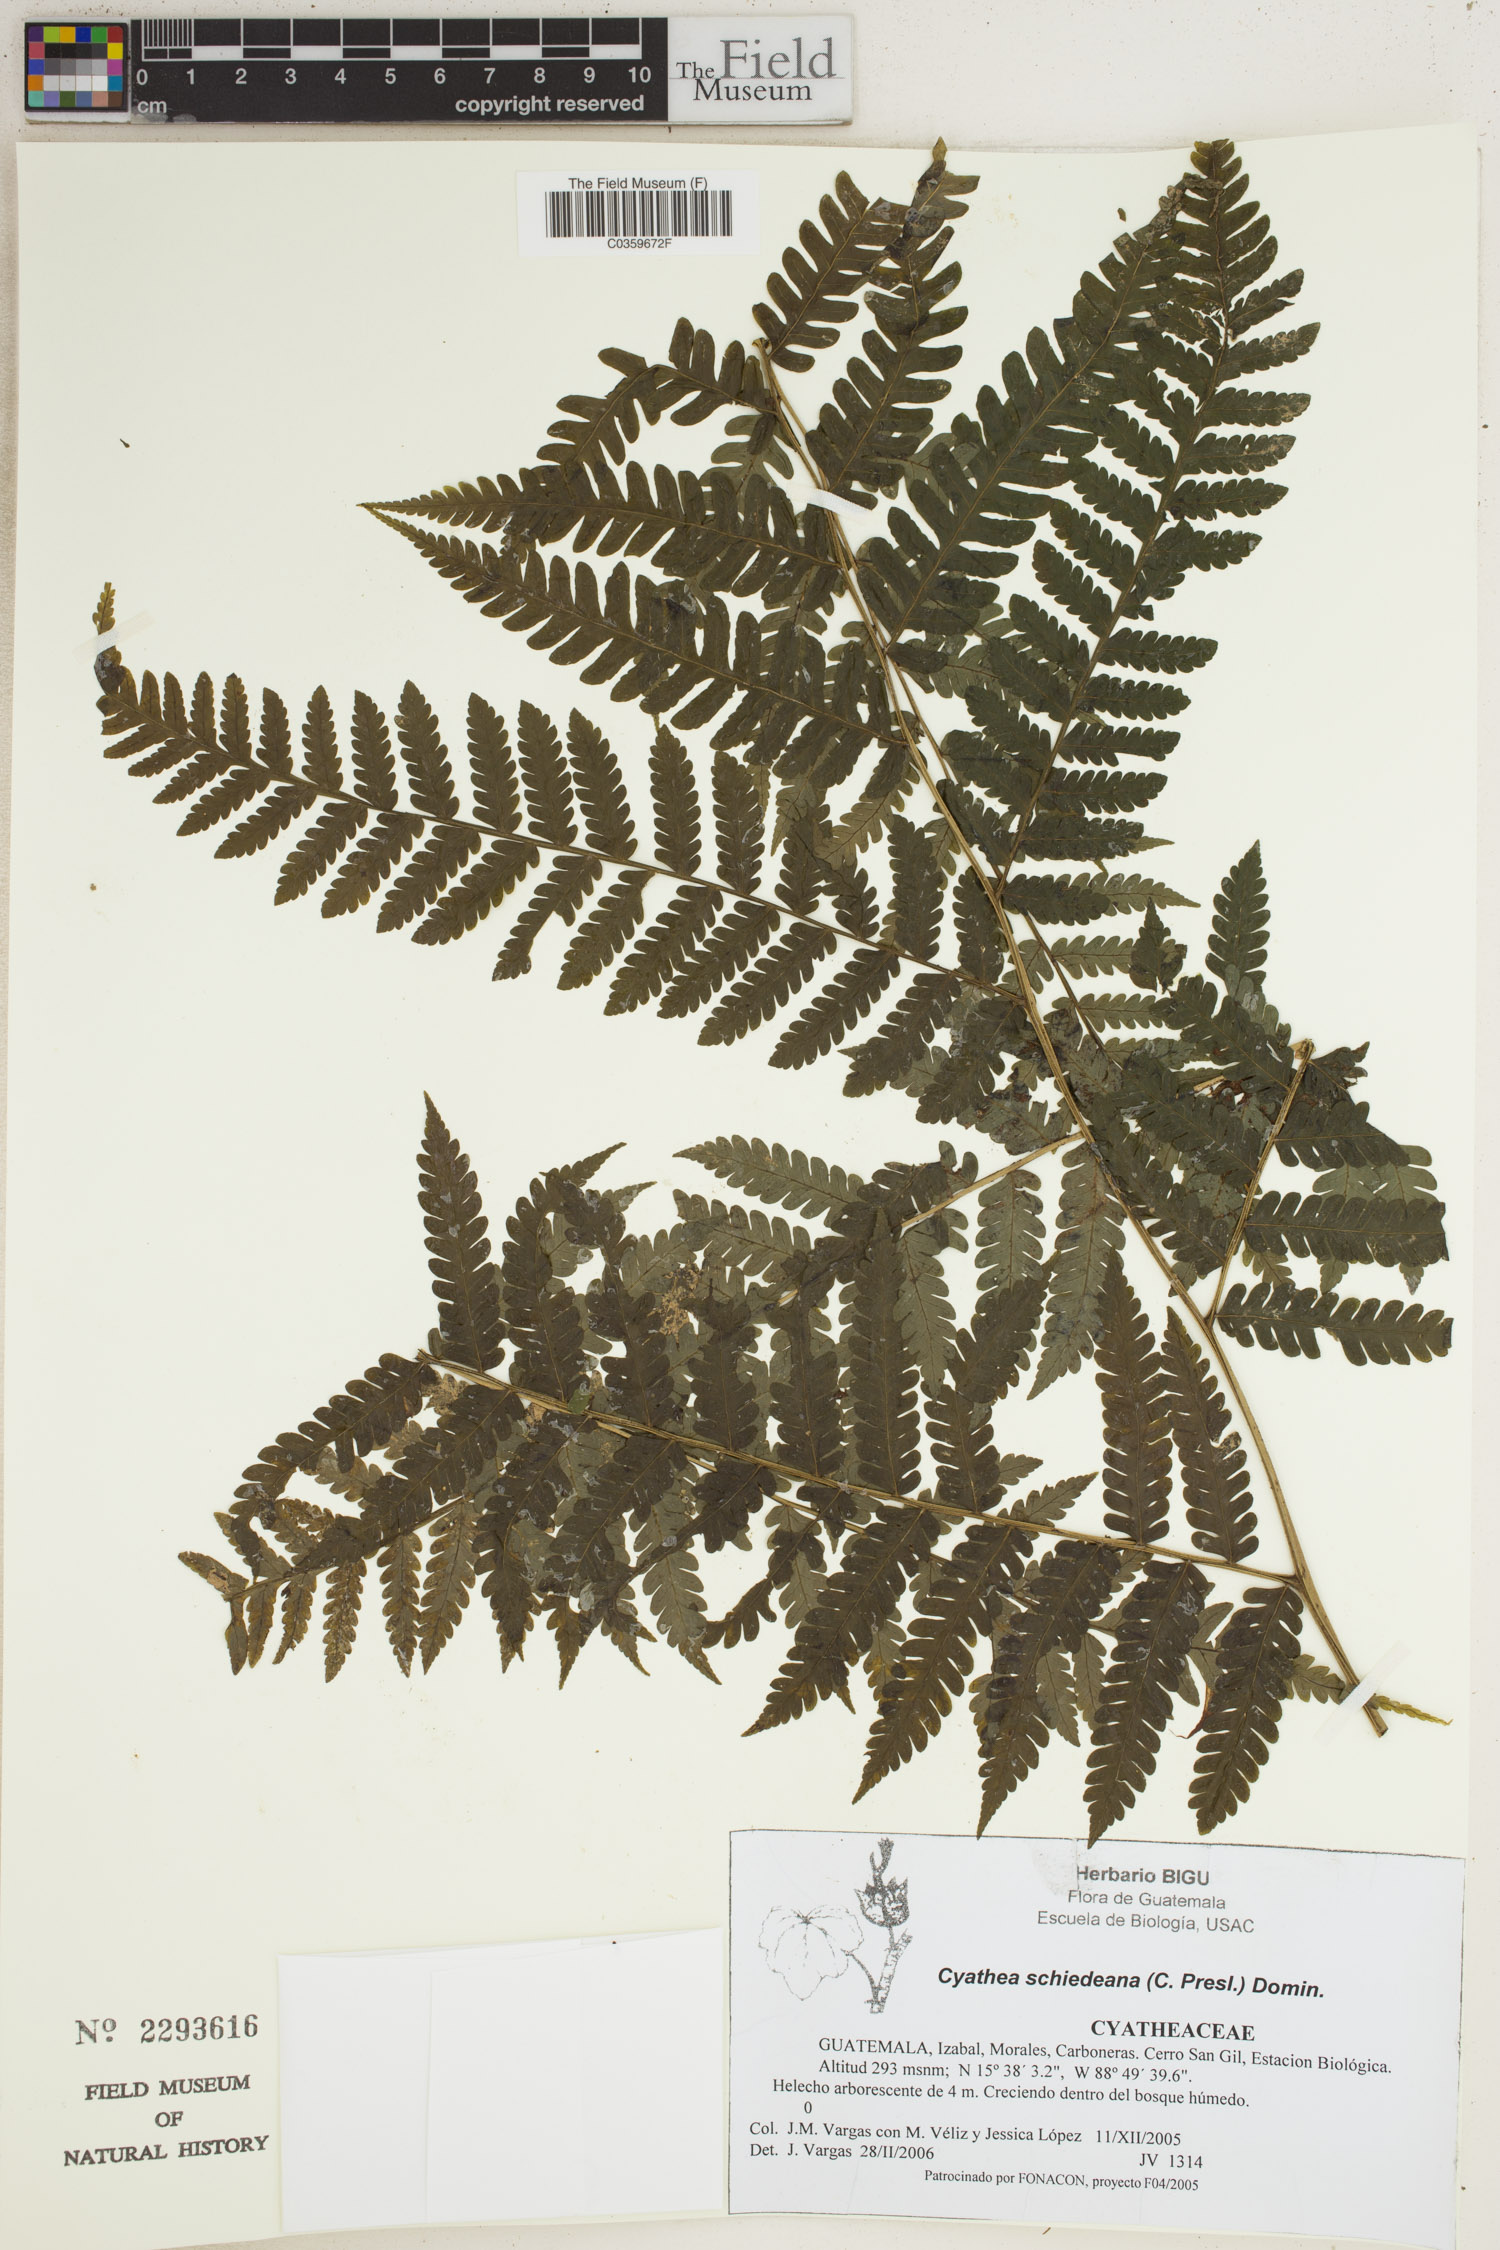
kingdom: Plantae
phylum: Tracheophyta
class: Polypodiopsida
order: Cyatheales
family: Cyatheaceae
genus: Cyathea
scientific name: Cyathea schiedeana
